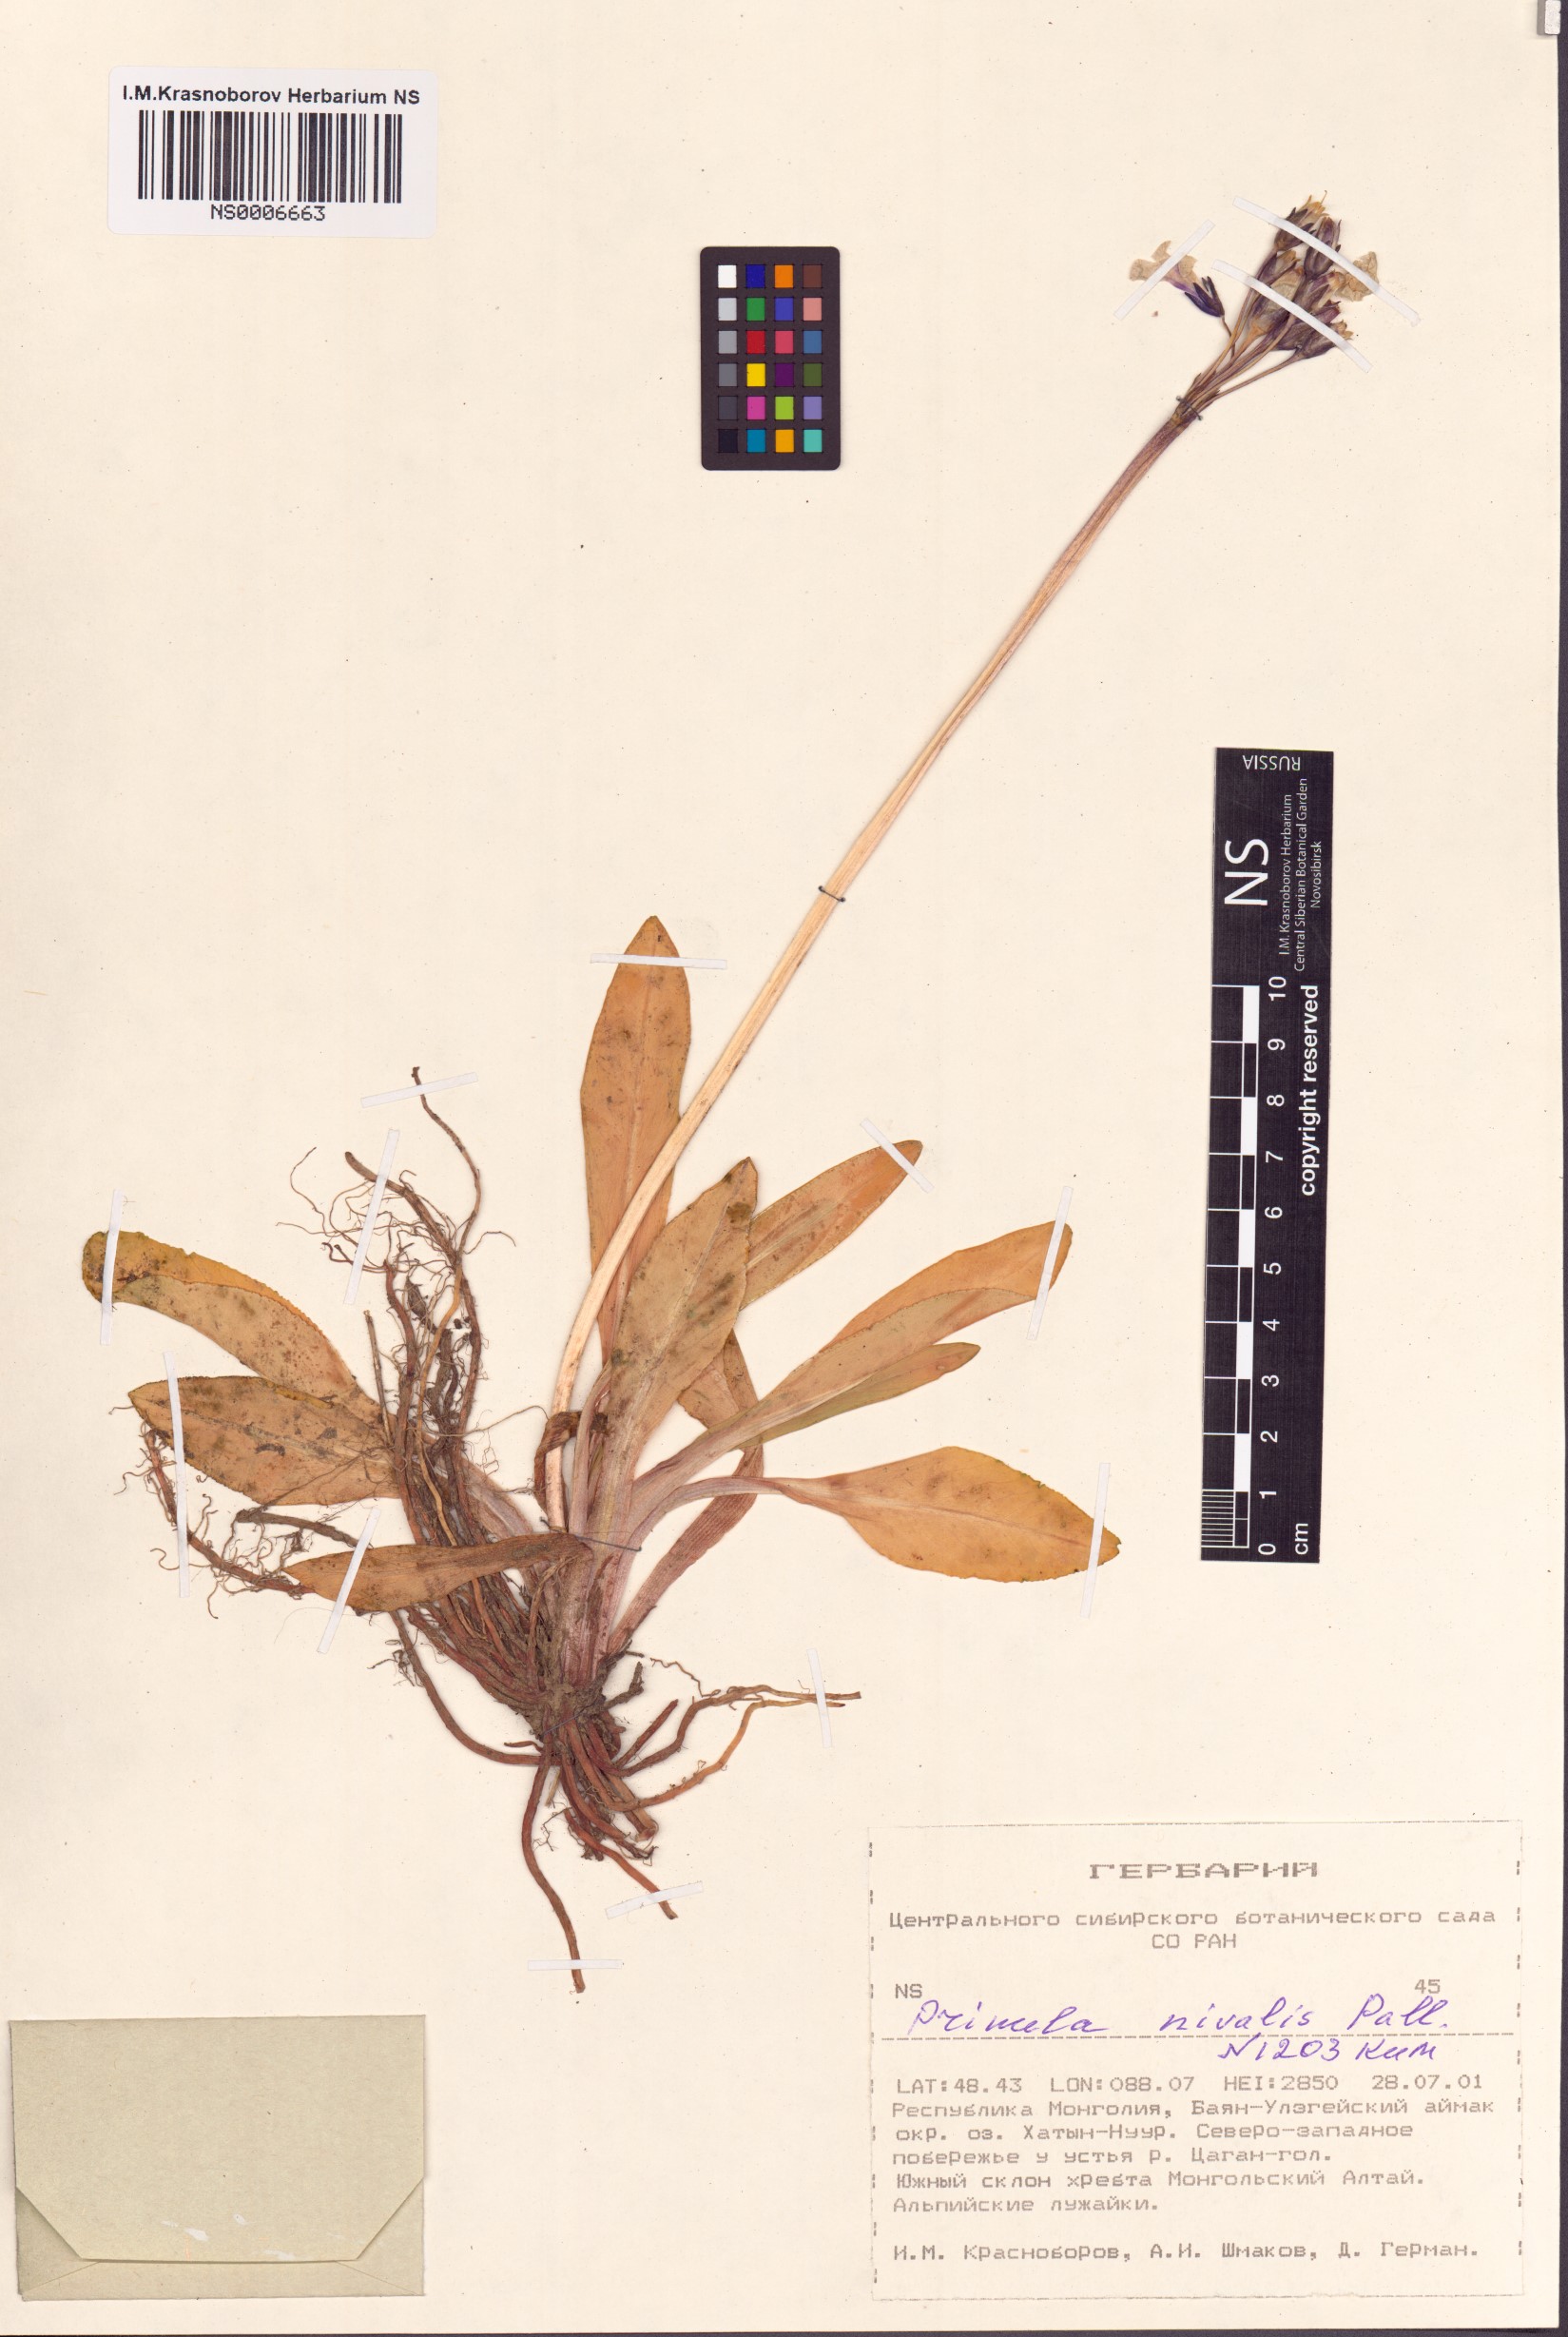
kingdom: Plantae
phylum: Tracheophyta
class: Magnoliopsida
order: Ericales
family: Primulaceae
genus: Primula
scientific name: Primula nivalis
